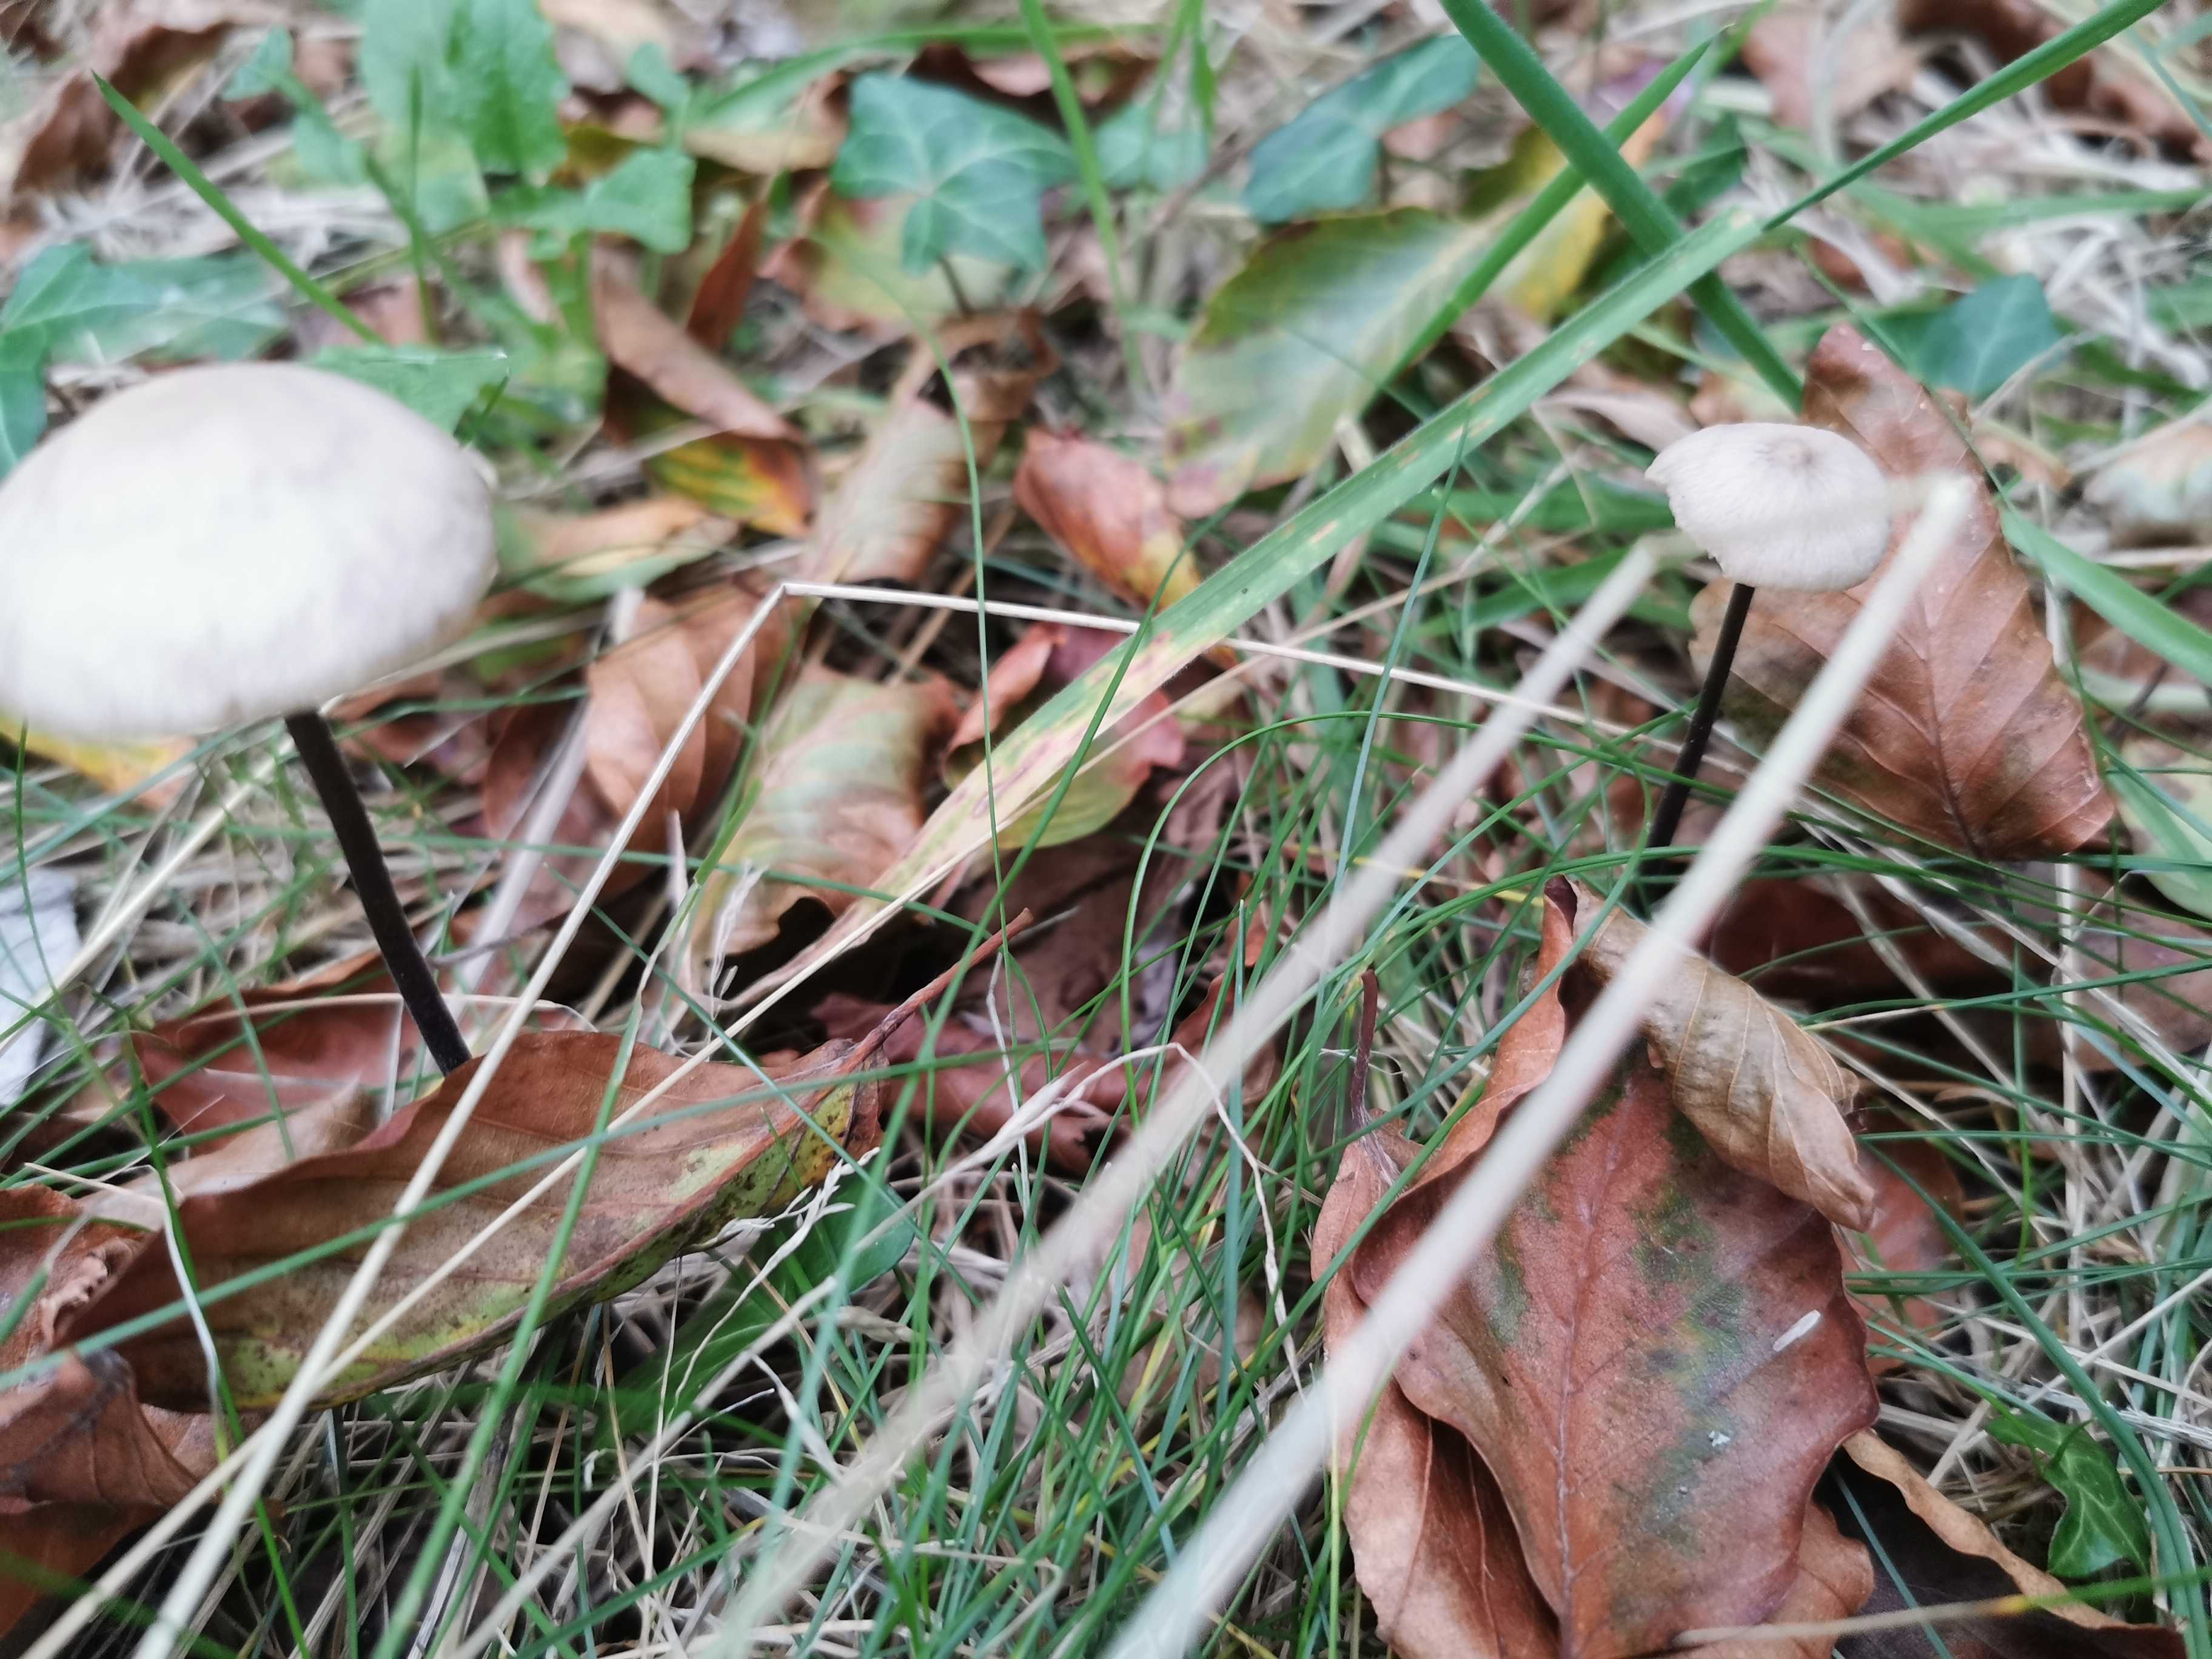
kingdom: Fungi
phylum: Basidiomycota
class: Agaricomycetes
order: Agaricales
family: Omphalotaceae
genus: Mycetinis
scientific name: Mycetinis alliaceus
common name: stor løghat
